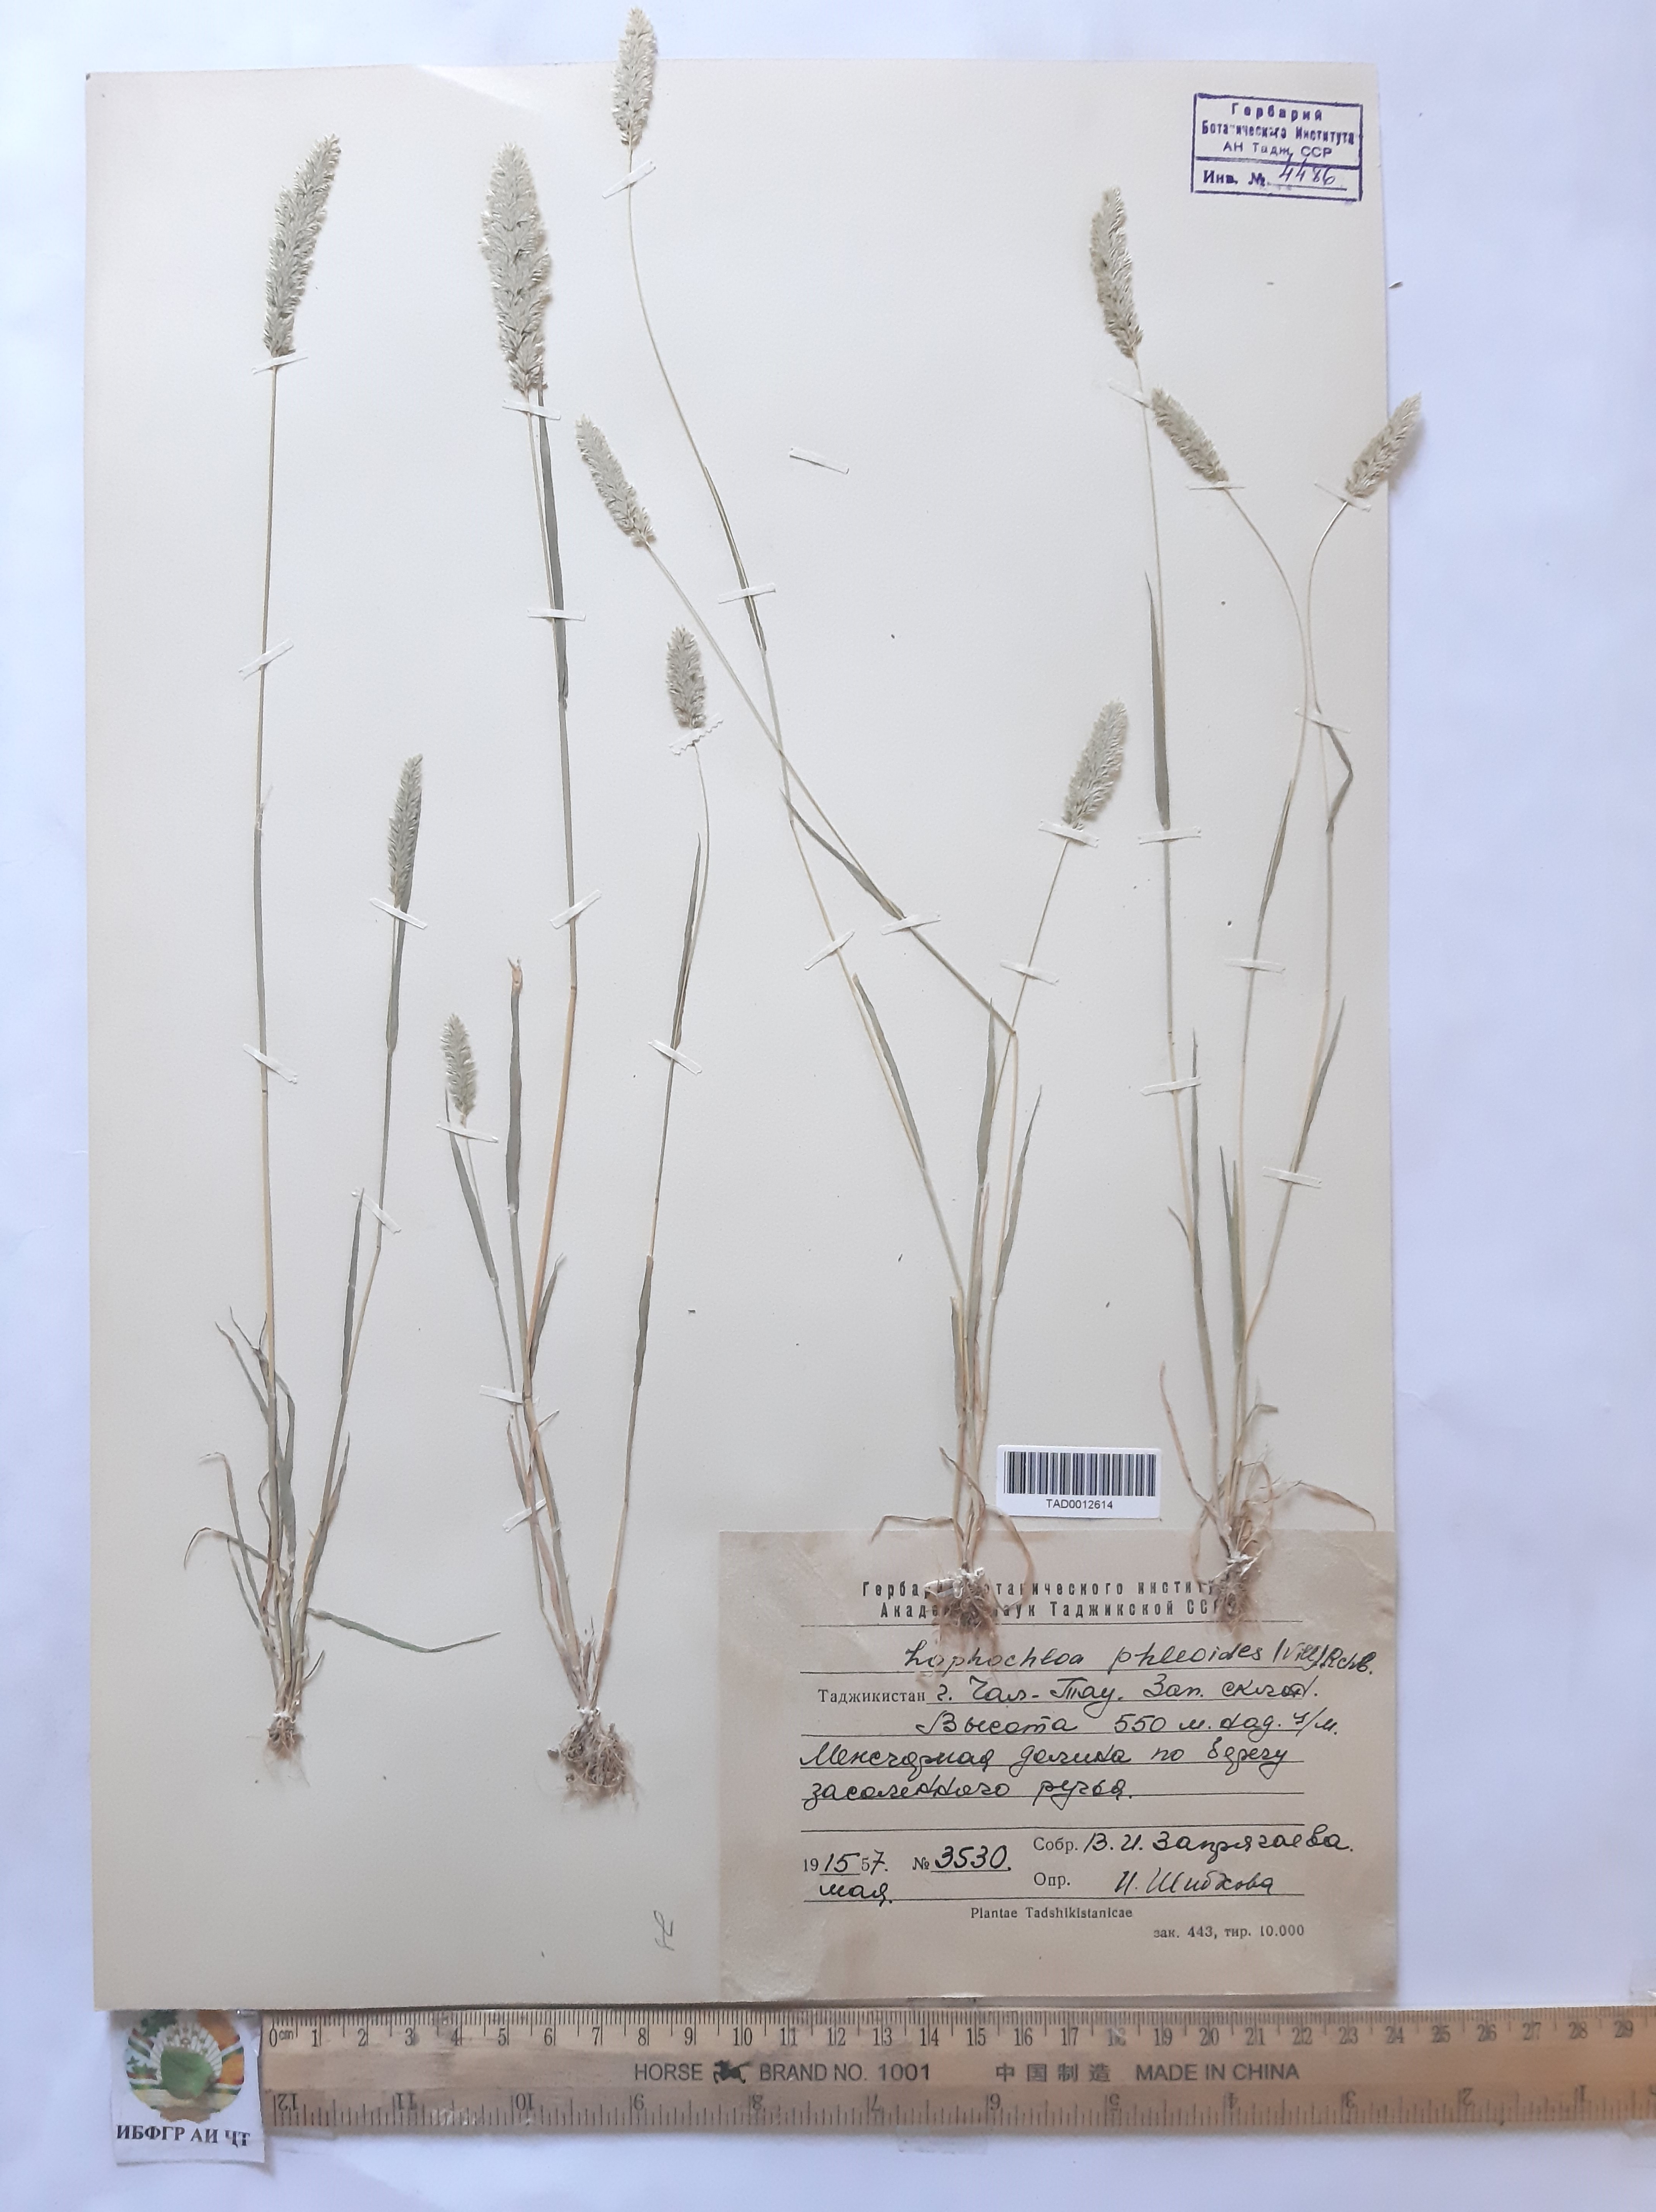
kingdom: Plantae
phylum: Tracheophyta
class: Liliopsida
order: Poales
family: Poaceae
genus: Rostraria
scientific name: Rostraria cristata
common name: Mediterranean hair-grass
